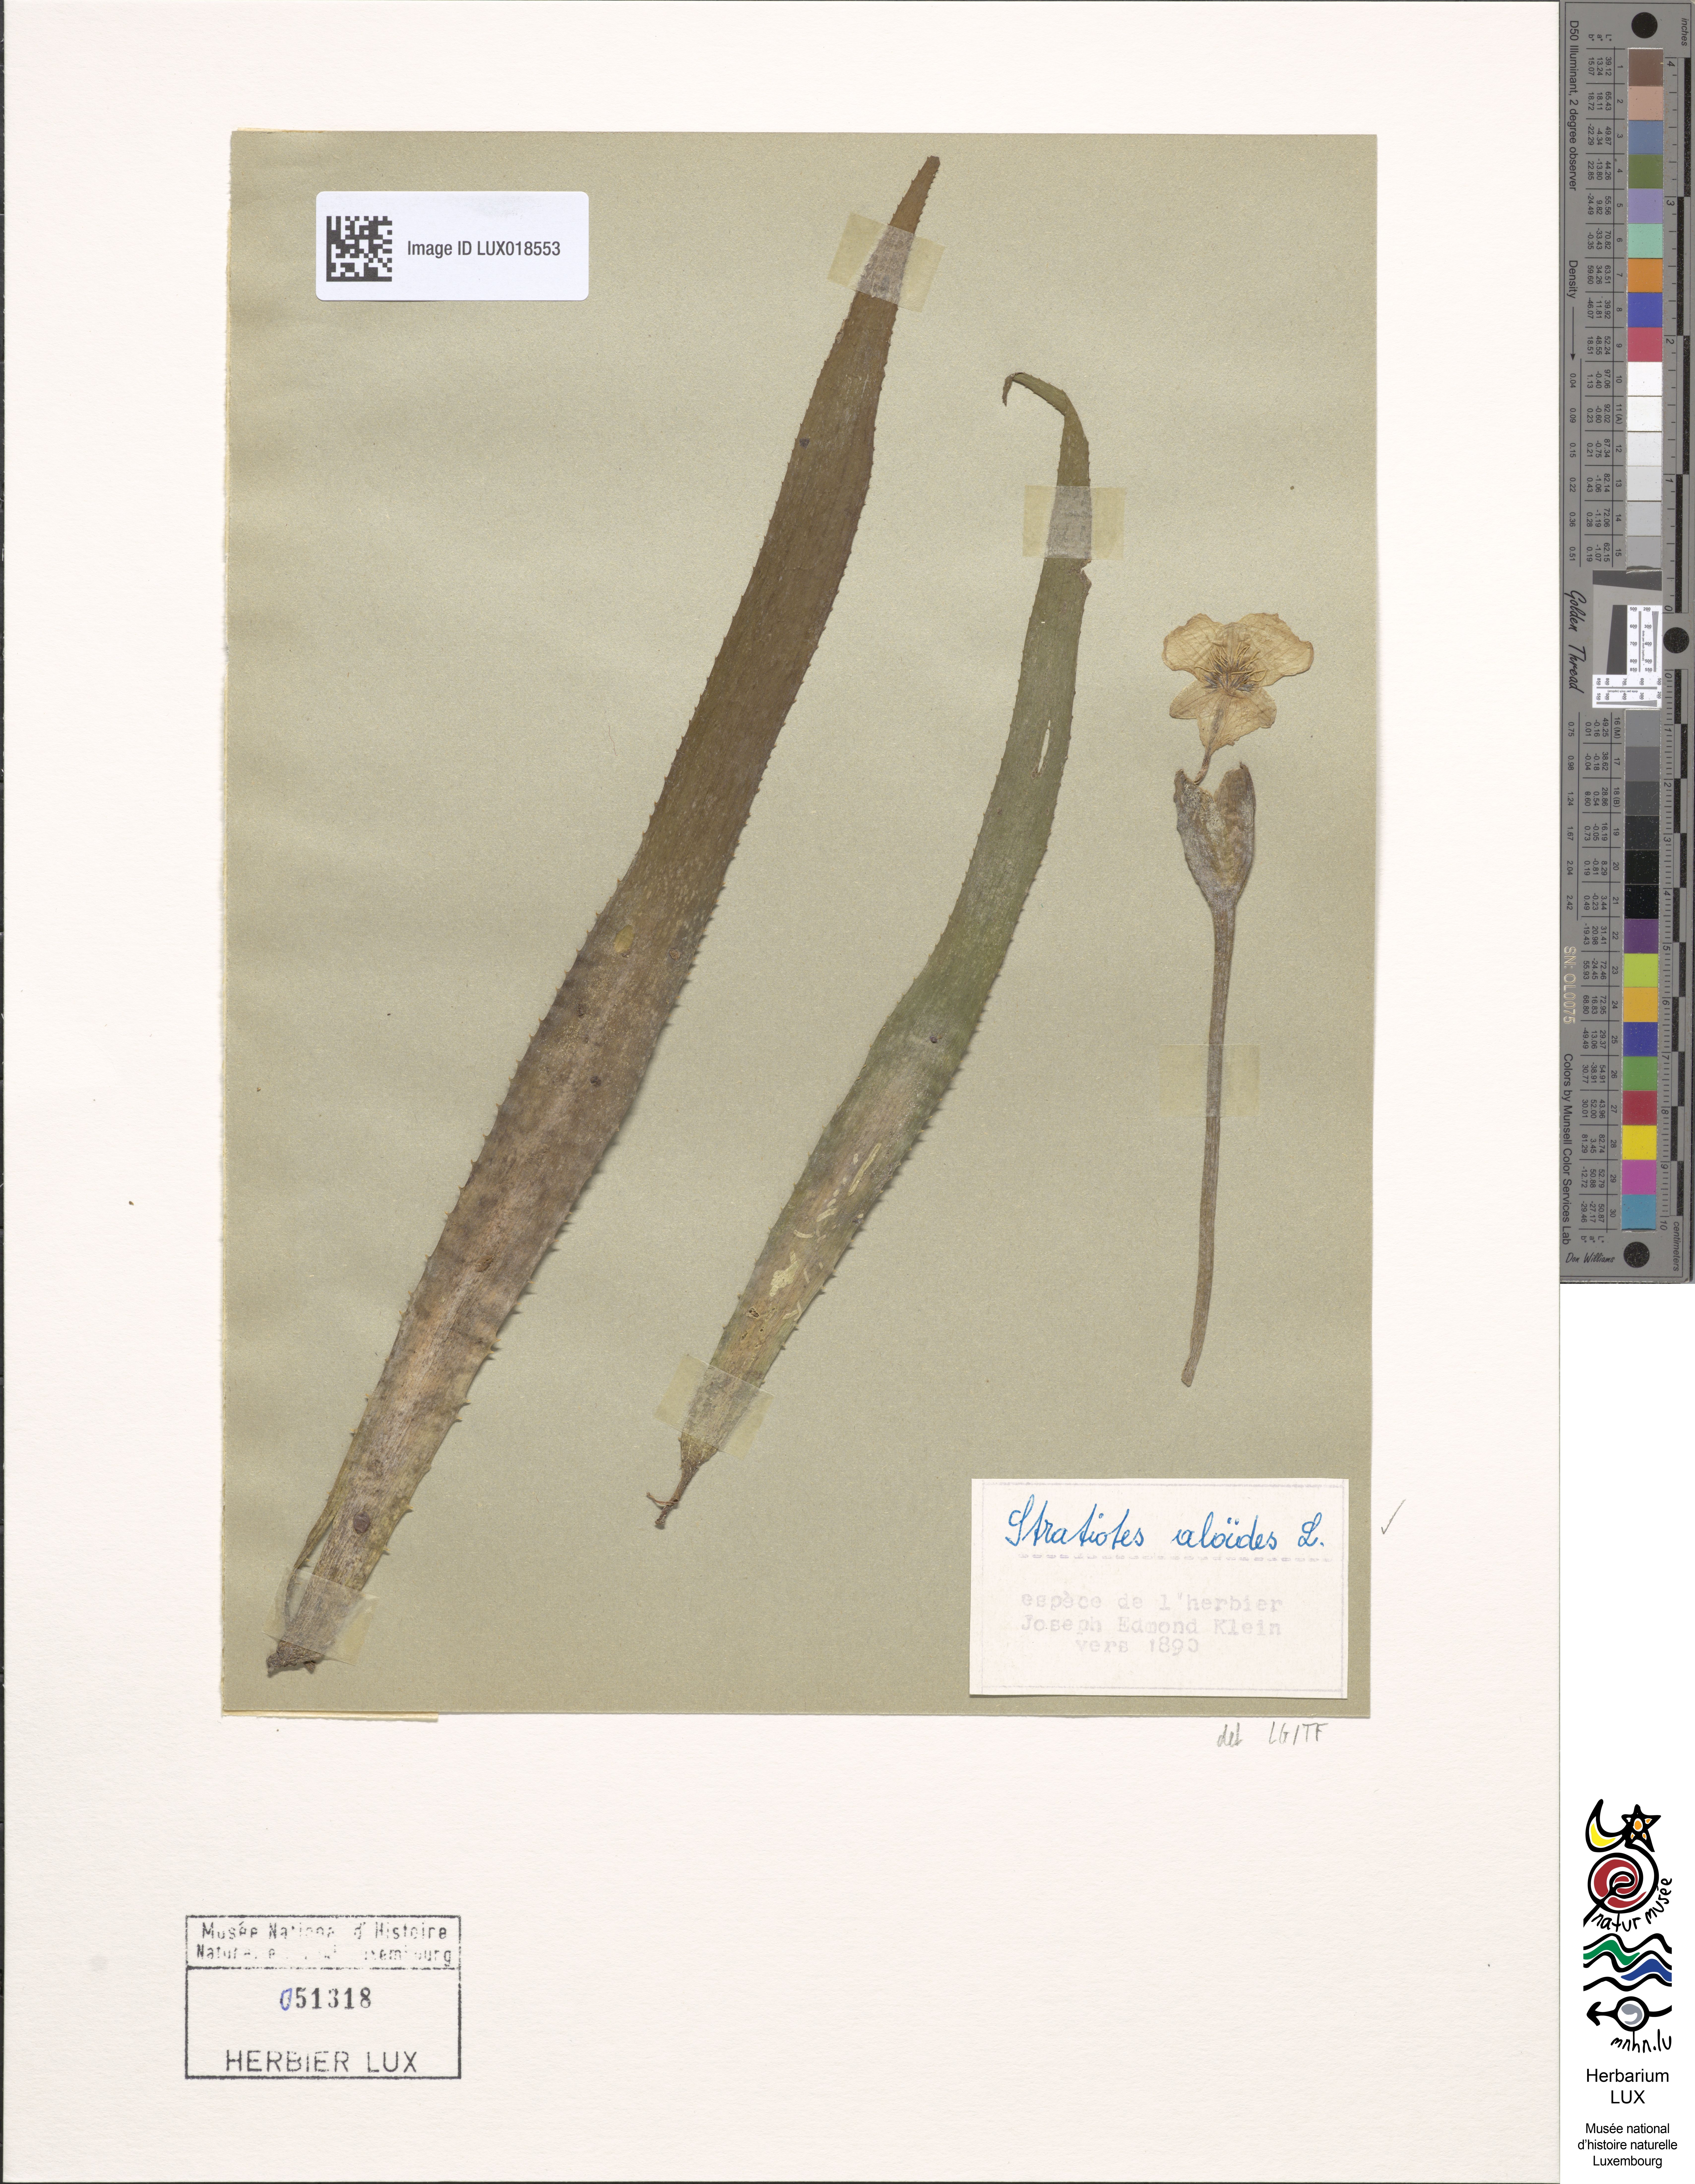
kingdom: Plantae
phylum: Tracheophyta
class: Liliopsida
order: Alismatales
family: Hydrocharitaceae
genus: Stratiotes
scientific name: Stratiotes aloides
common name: Water-soldier
